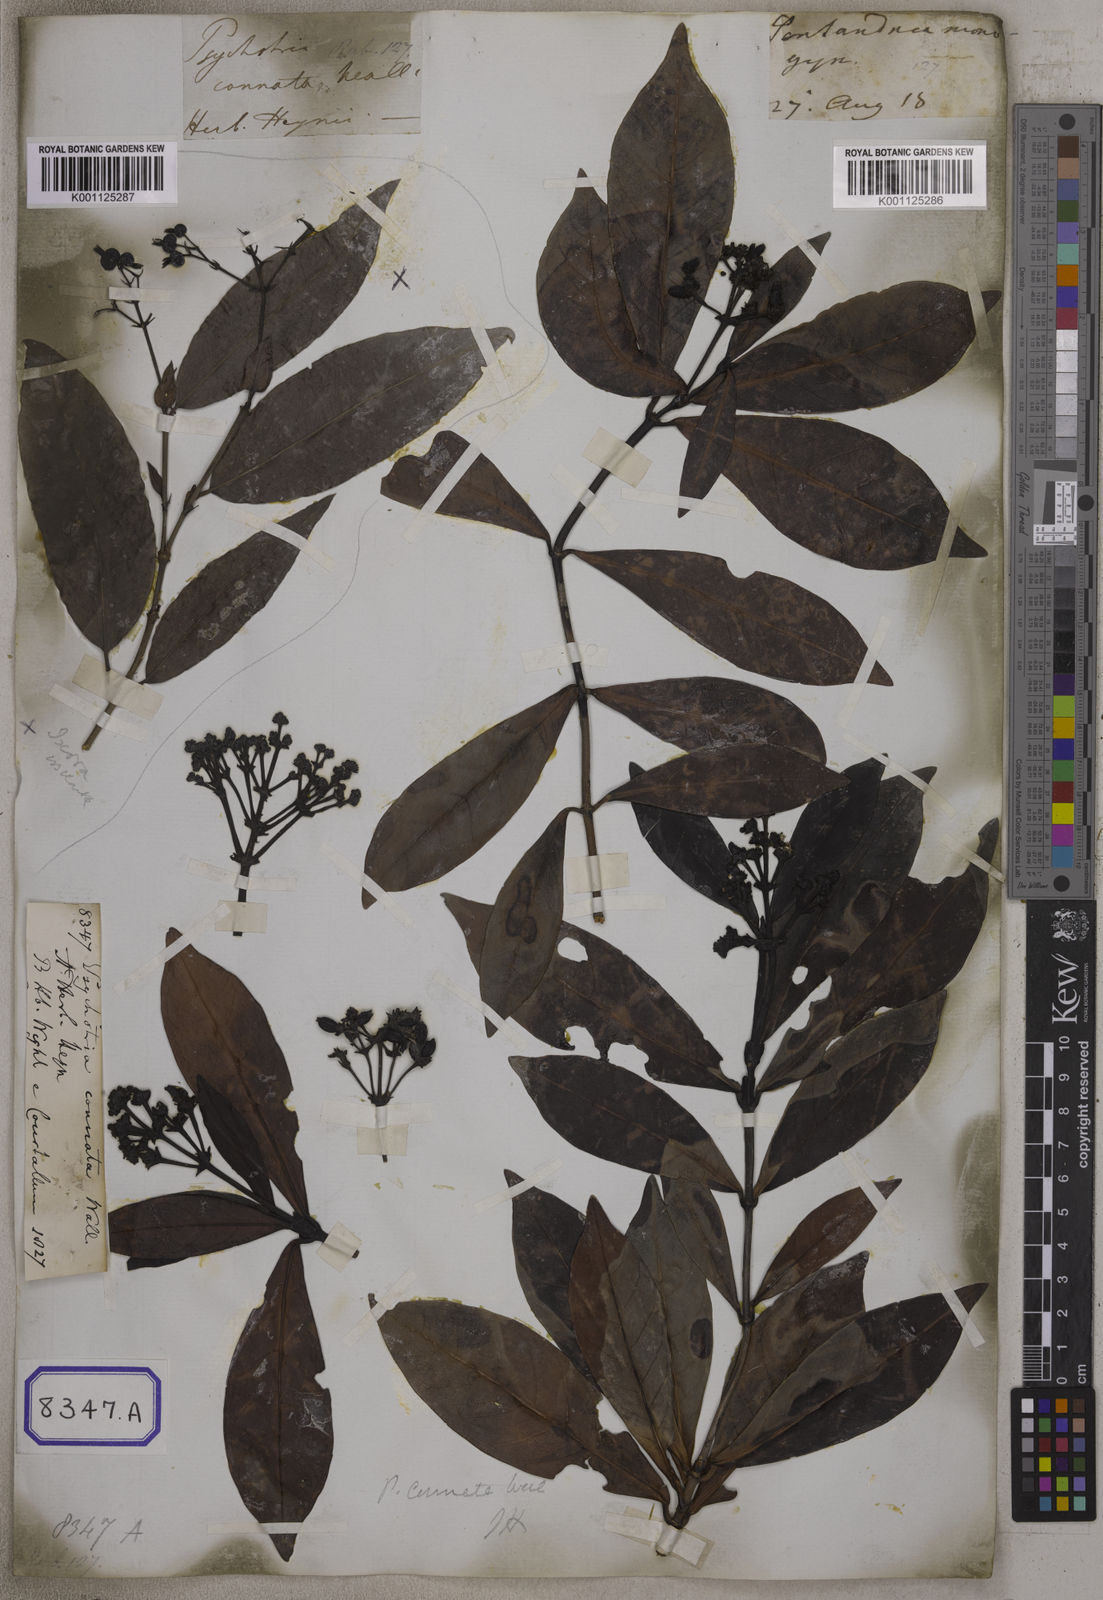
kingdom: Plantae
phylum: Tracheophyta
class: Magnoliopsida
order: Gentianales
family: Rubiaceae
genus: Psychotria
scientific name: Psychotria connata
